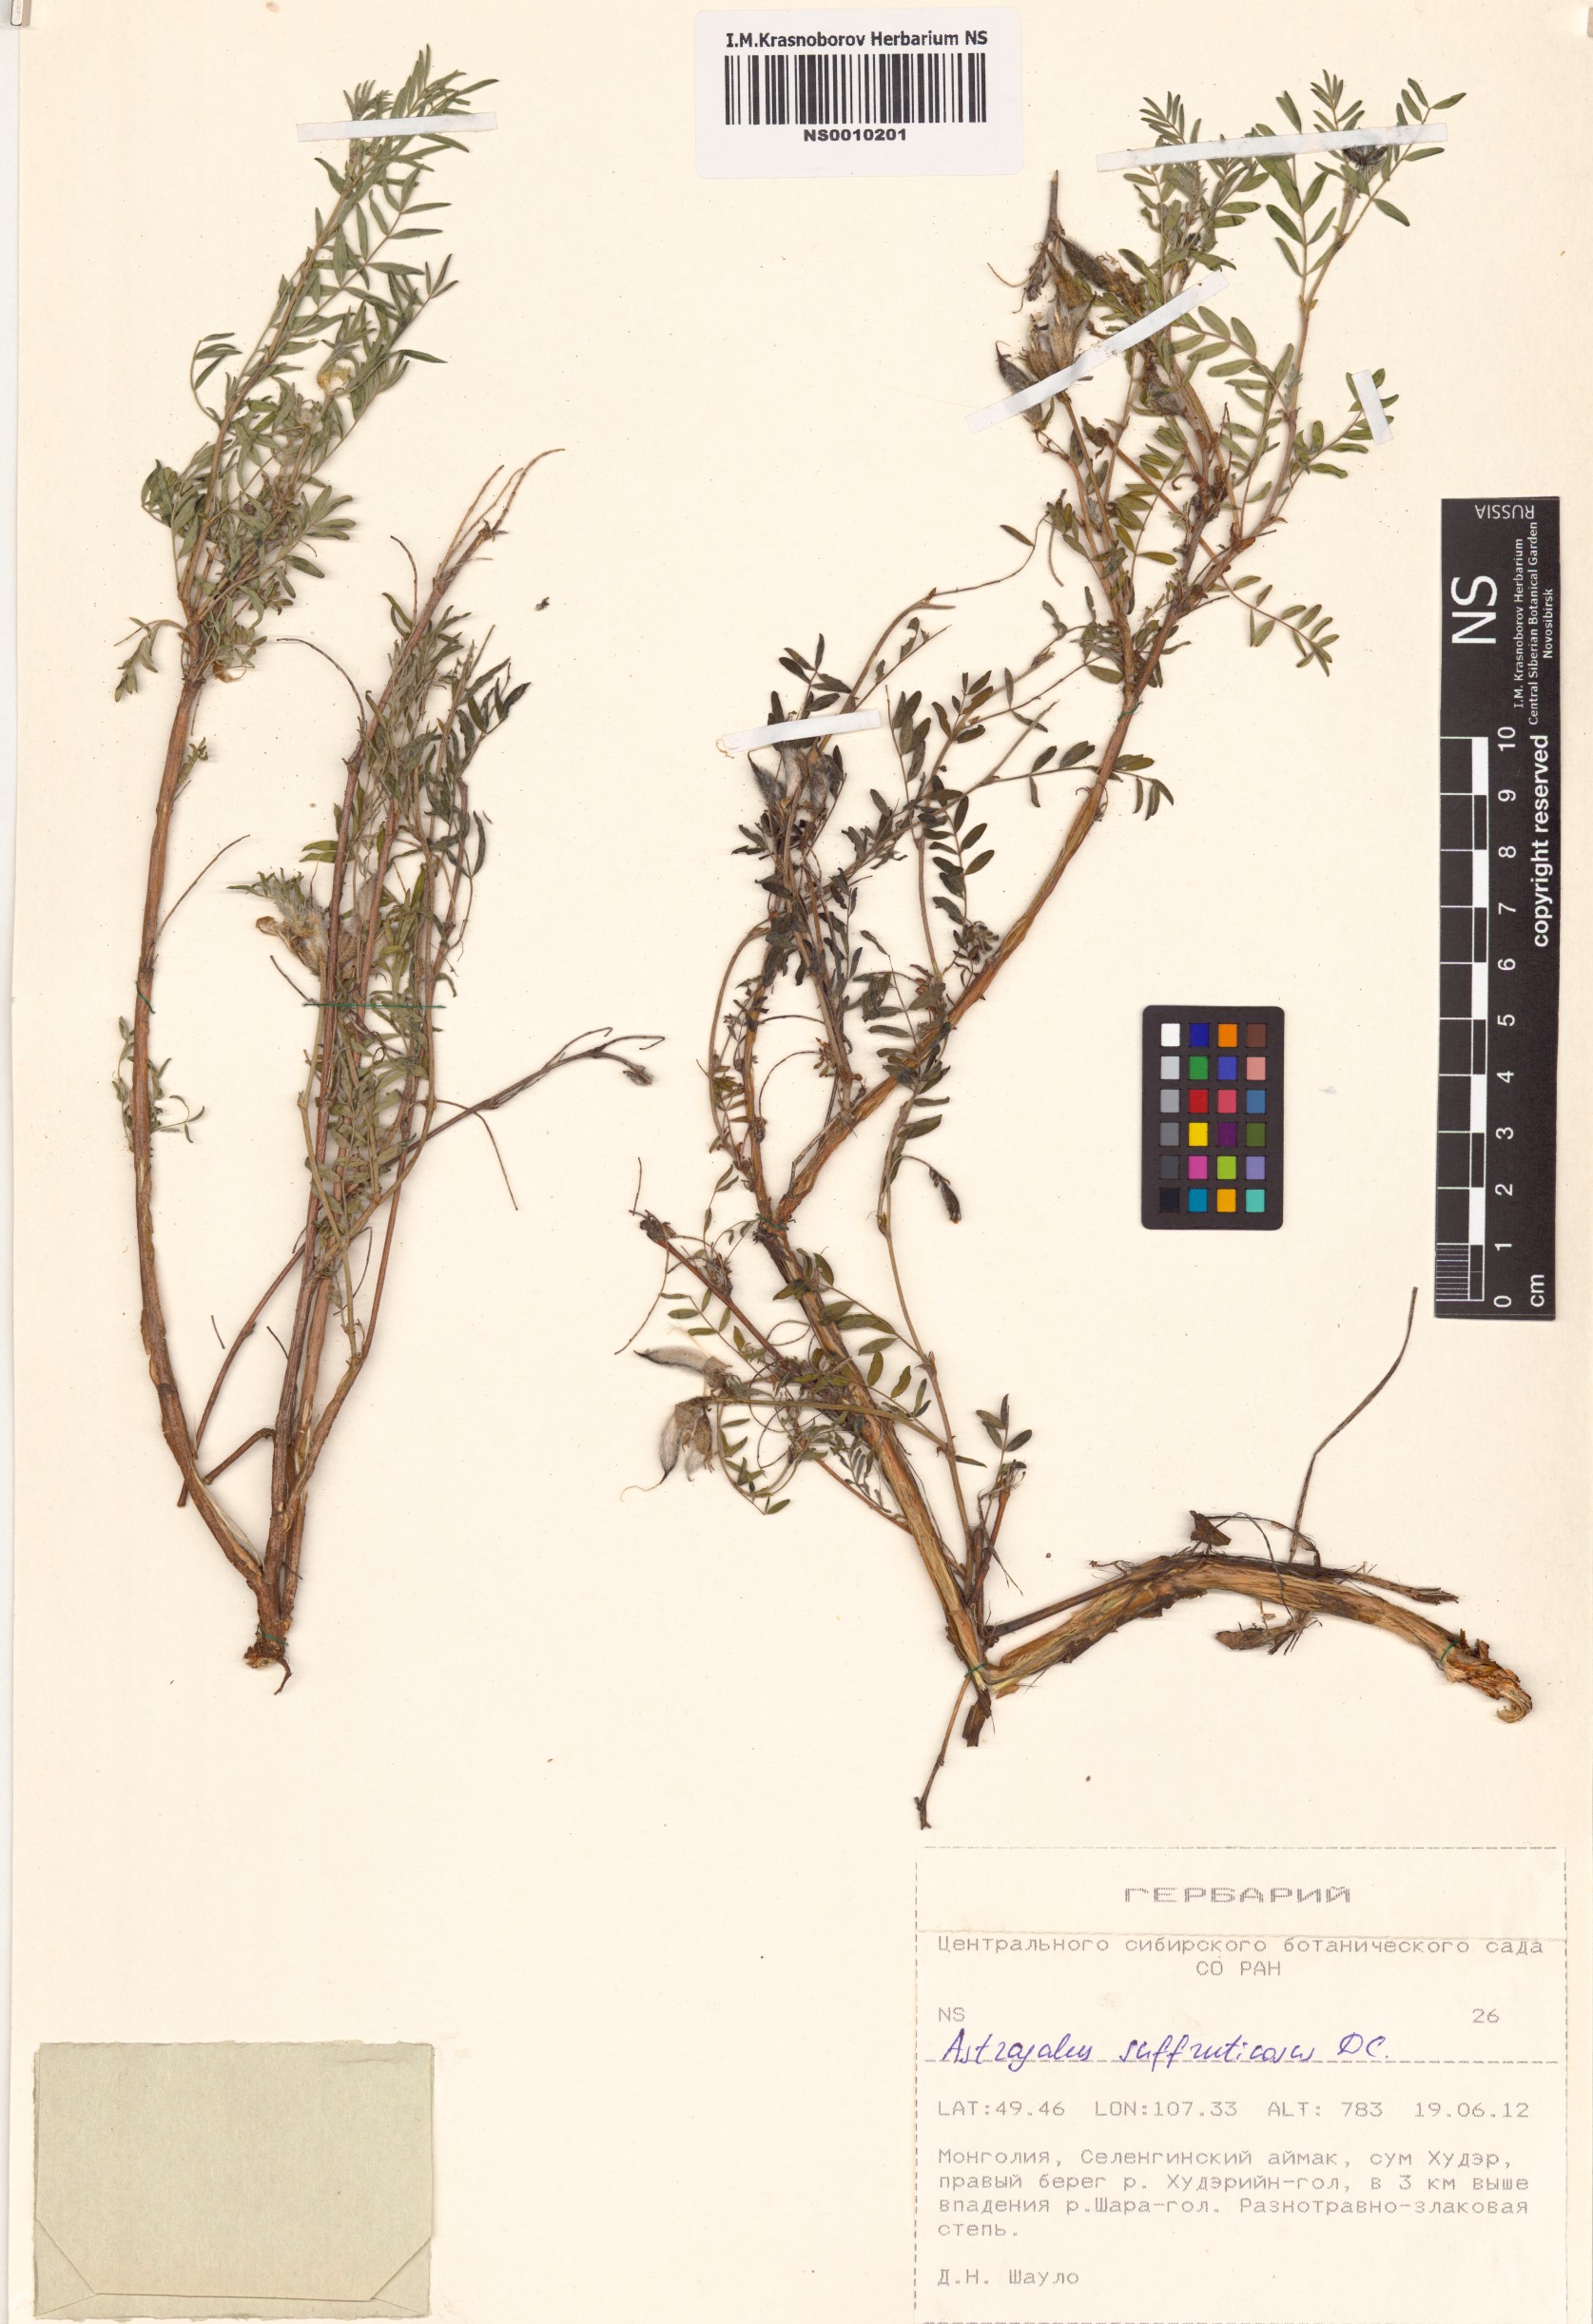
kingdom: Plantae
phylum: Tracheophyta
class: Magnoliopsida
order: Fabales
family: Fabaceae
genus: Astragalus
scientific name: Astragalus syriacus
